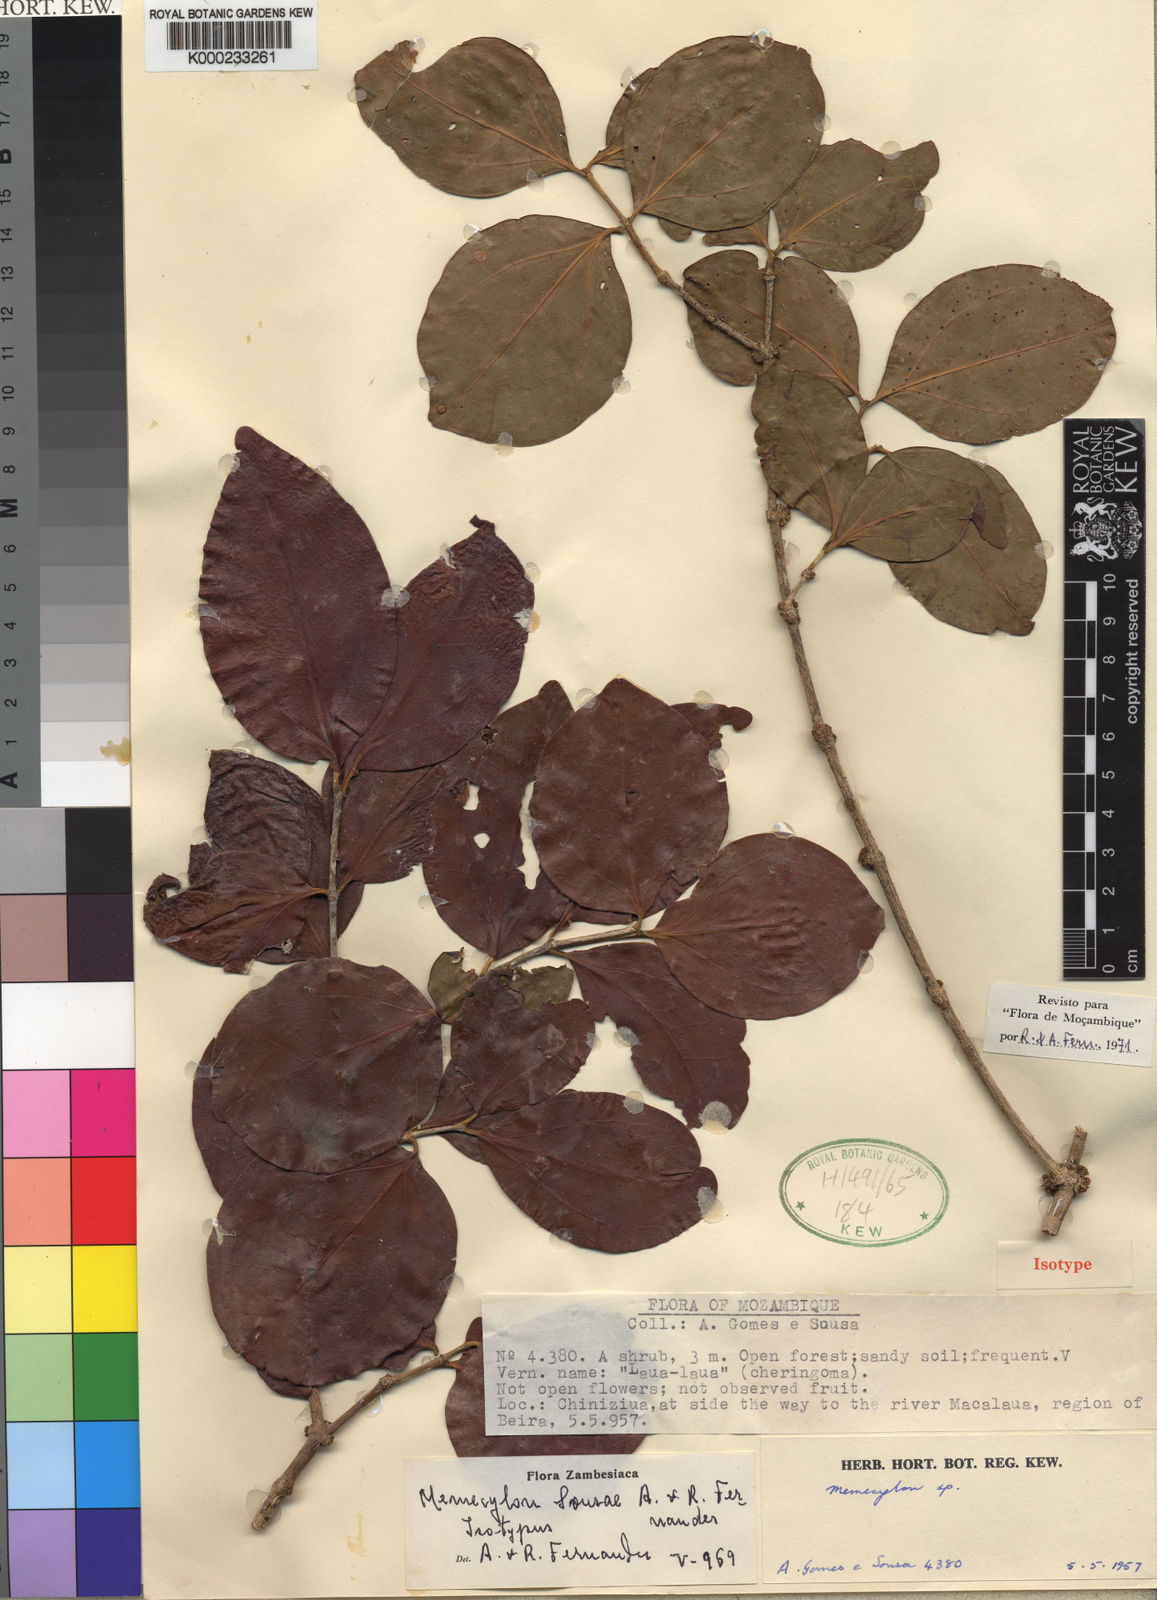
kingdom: Plantae
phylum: Tracheophyta
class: Magnoliopsida
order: Myrtales
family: Melastomataceae
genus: Warneckea
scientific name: Warneckea sousae
